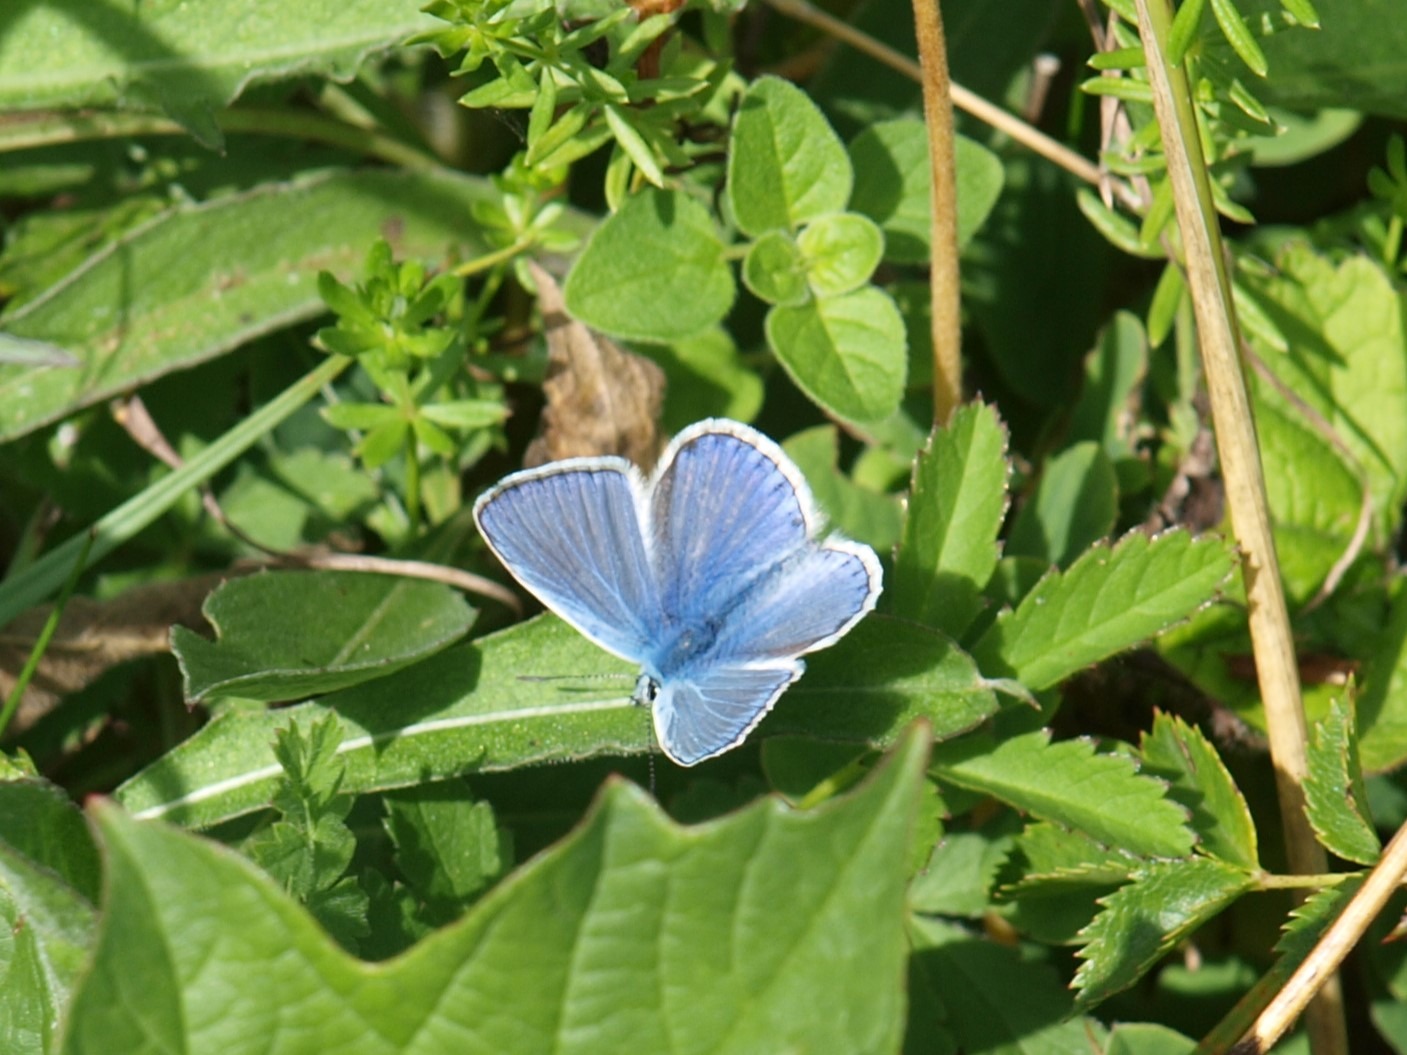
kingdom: Animalia
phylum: Arthropoda
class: Insecta
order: Lepidoptera
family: Lycaenidae
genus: Polyommatus
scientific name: Polyommatus icarus
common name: Almindelig blåfugl
